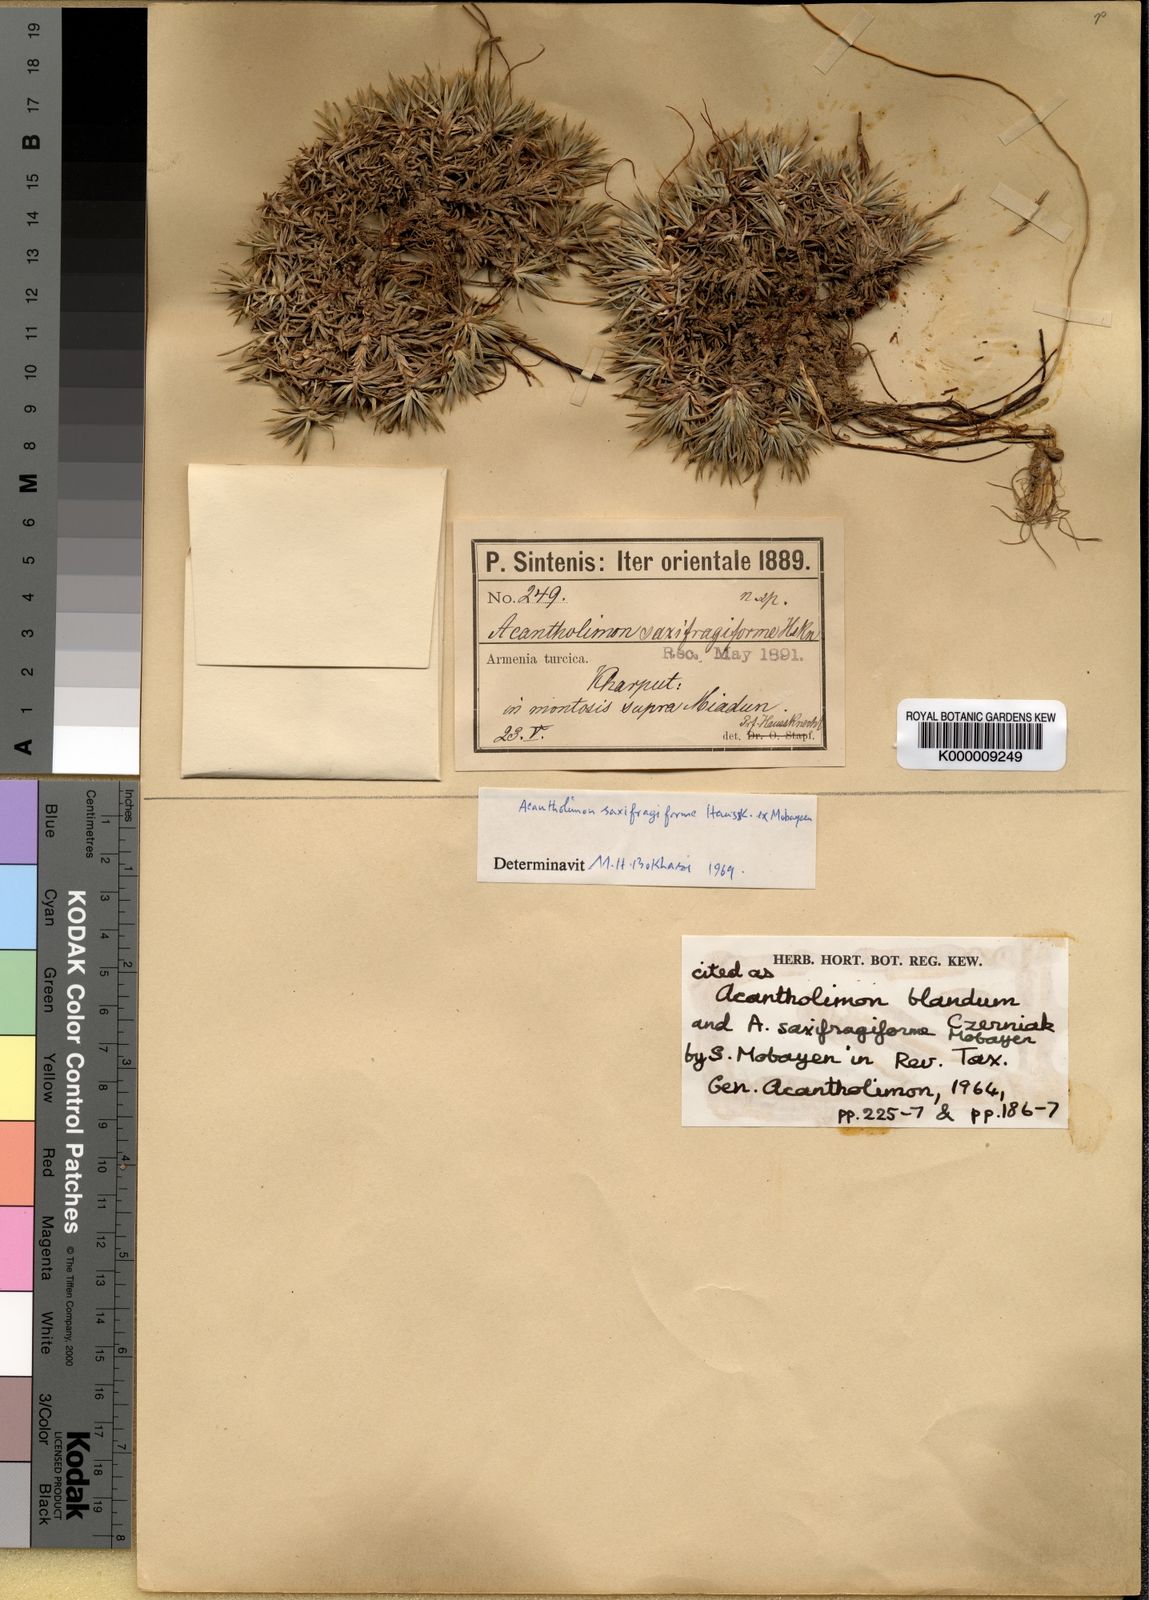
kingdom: Plantae
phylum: Tracheophyta
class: Magnoliopsida
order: Caryophyllales
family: Plumbaginaceae
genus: Acantholimon
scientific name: Acantholimon
